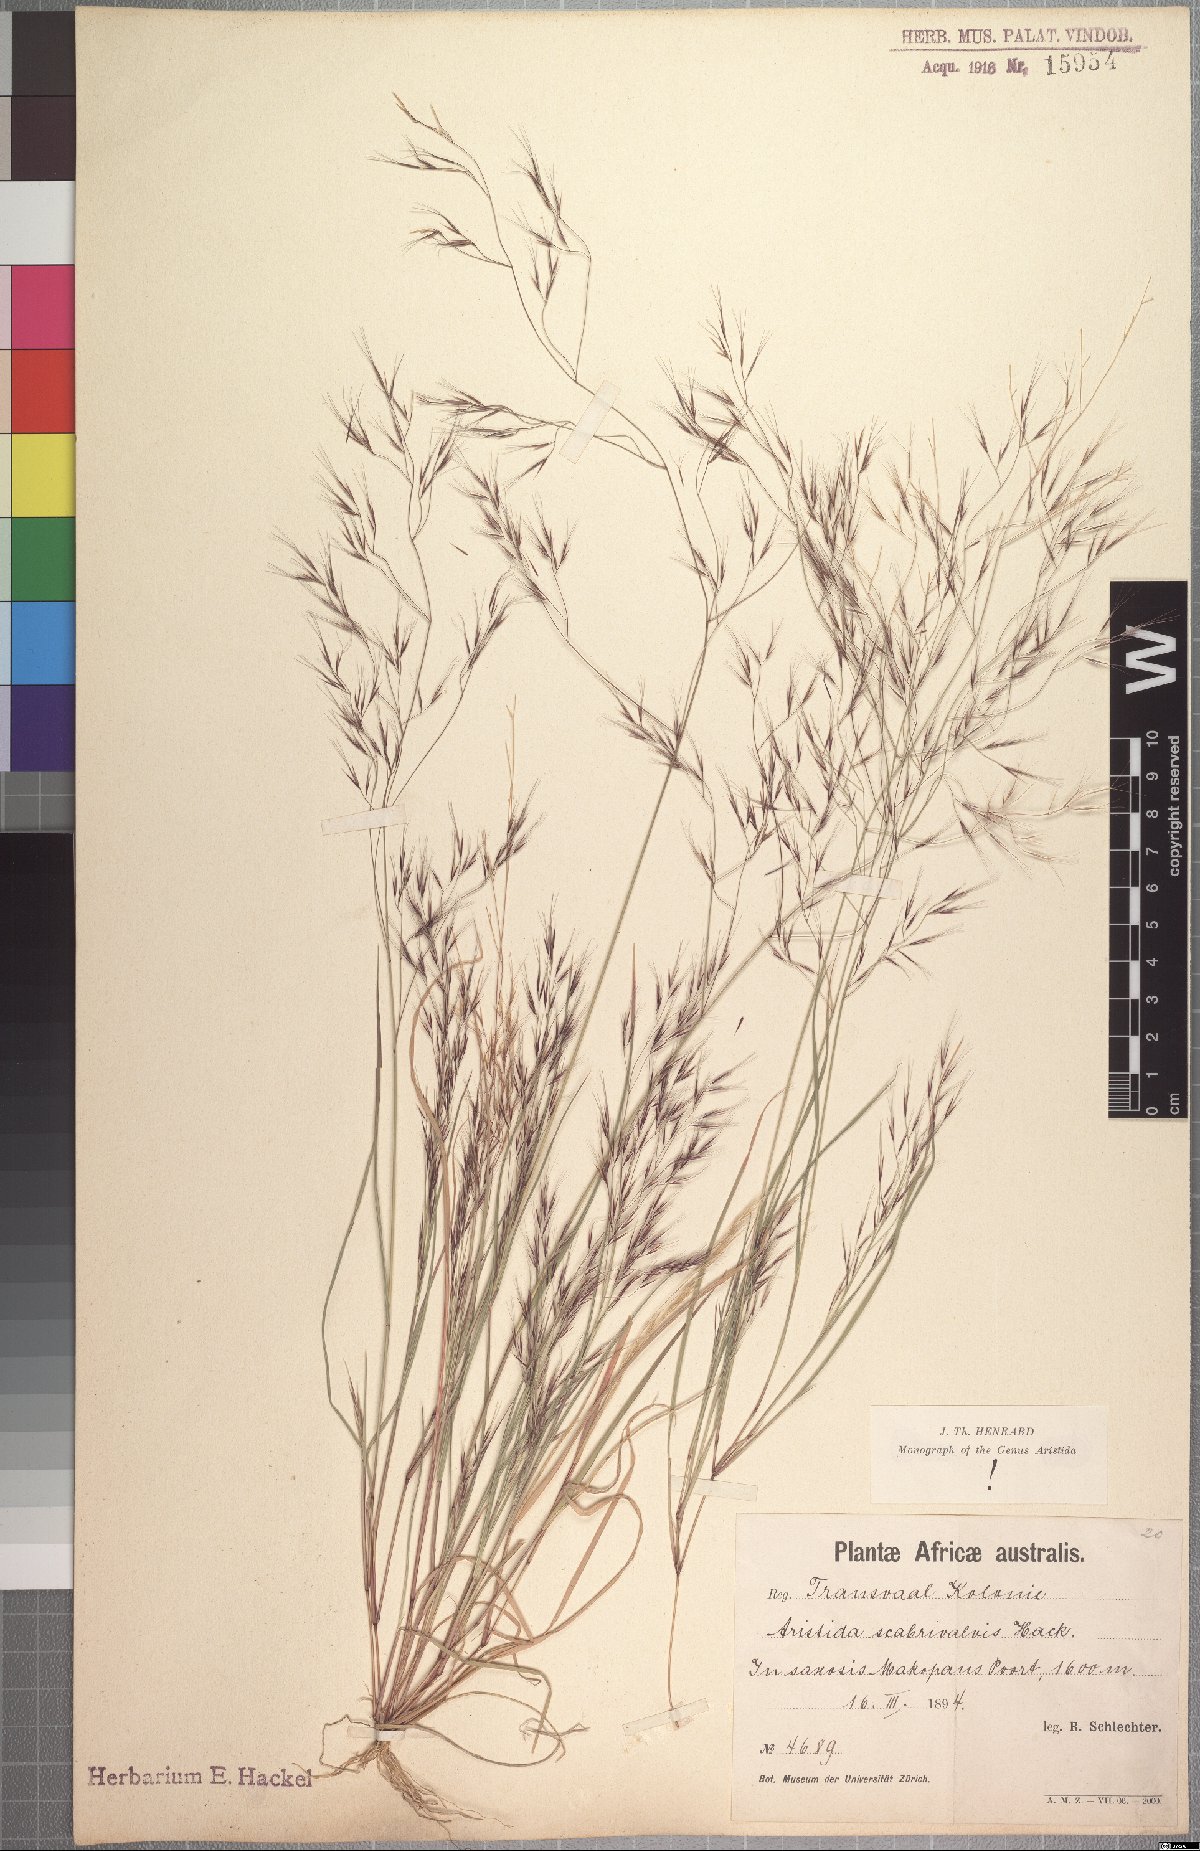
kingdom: Plantae
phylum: Tracheophyta
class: Liliopsida
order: Poales
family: Poaceae
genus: Aristida
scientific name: Aristida scabrivalvis
